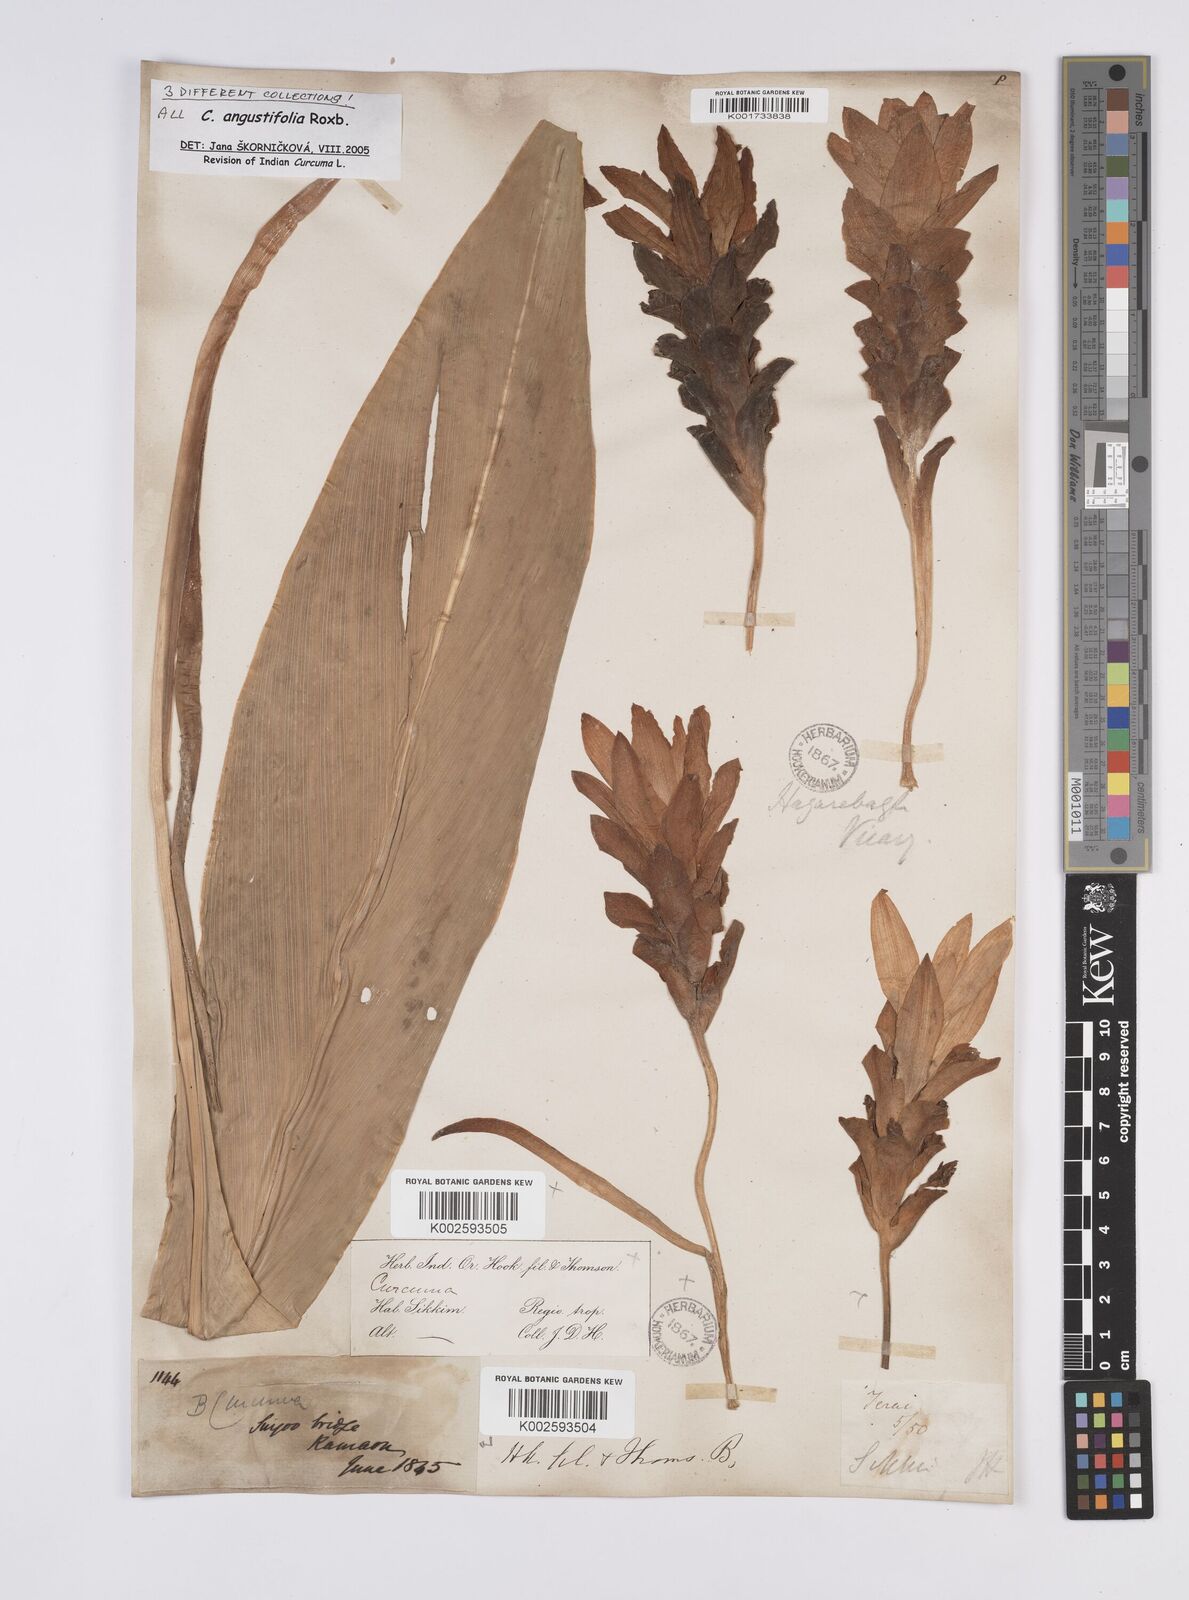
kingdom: Plantae
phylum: Tracheophyta
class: Liliopsida
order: Zingiberales
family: Zingiberaceae
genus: Curcuma
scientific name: Curcuma angustifolia
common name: East indian arrowroot
